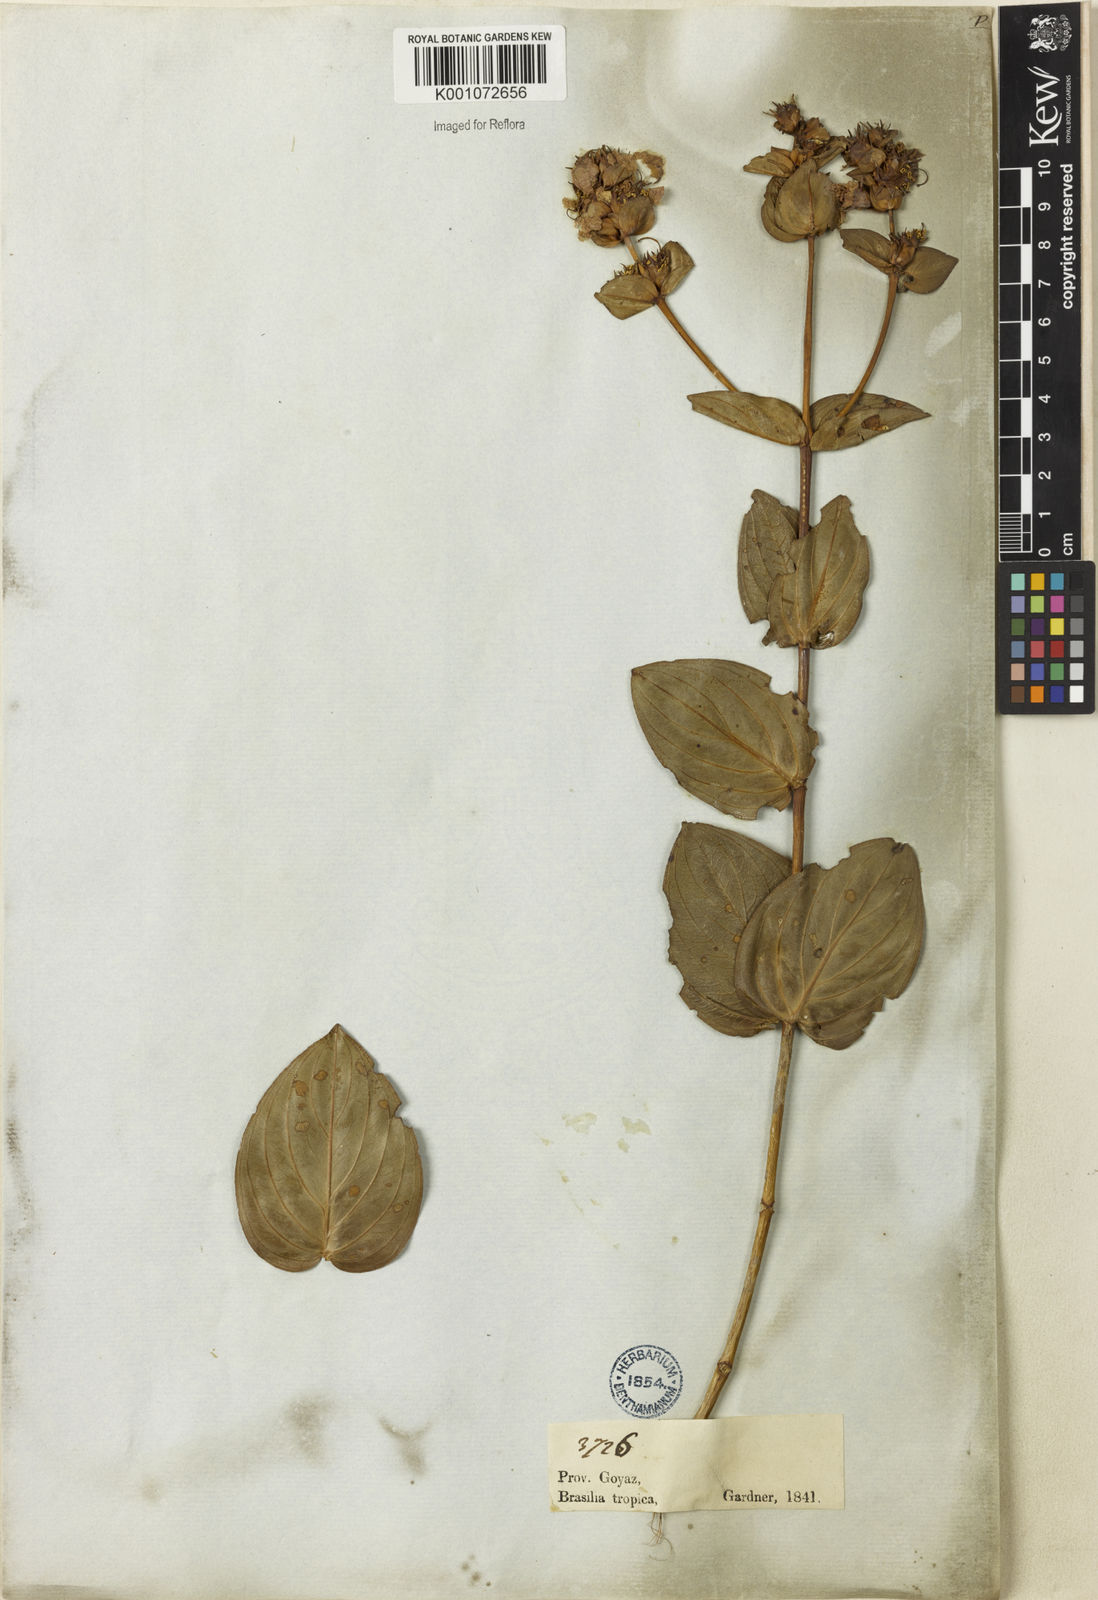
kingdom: Plantae
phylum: Tracheophyta
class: Magnoliopsida
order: Myrtales
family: Lythraceae
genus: Diplusodon
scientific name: Diplusodon speciosus
